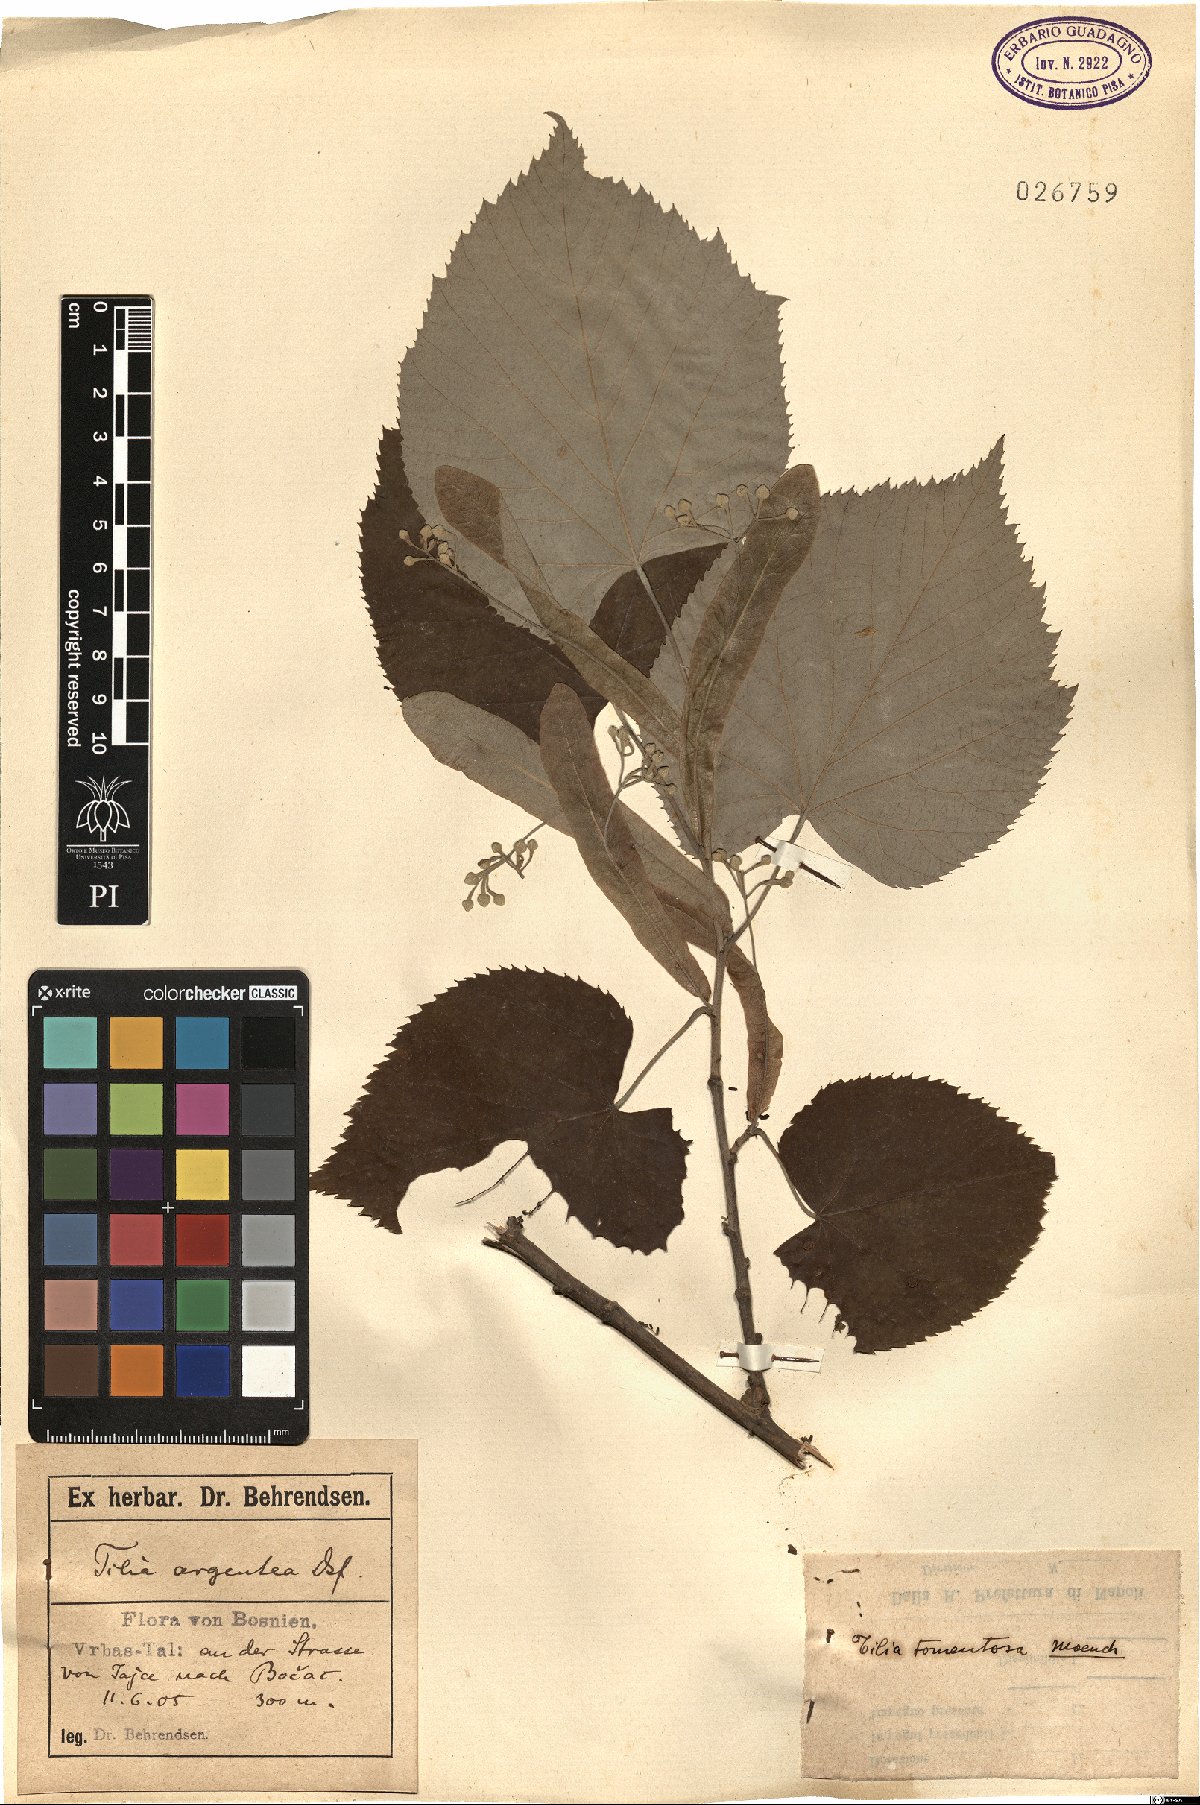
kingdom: Plantae
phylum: Tracheophyta
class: Magnoliopsida
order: Malvales
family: Malvaceae
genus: Tilia
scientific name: Tilia tomentosa
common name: Silver lime
